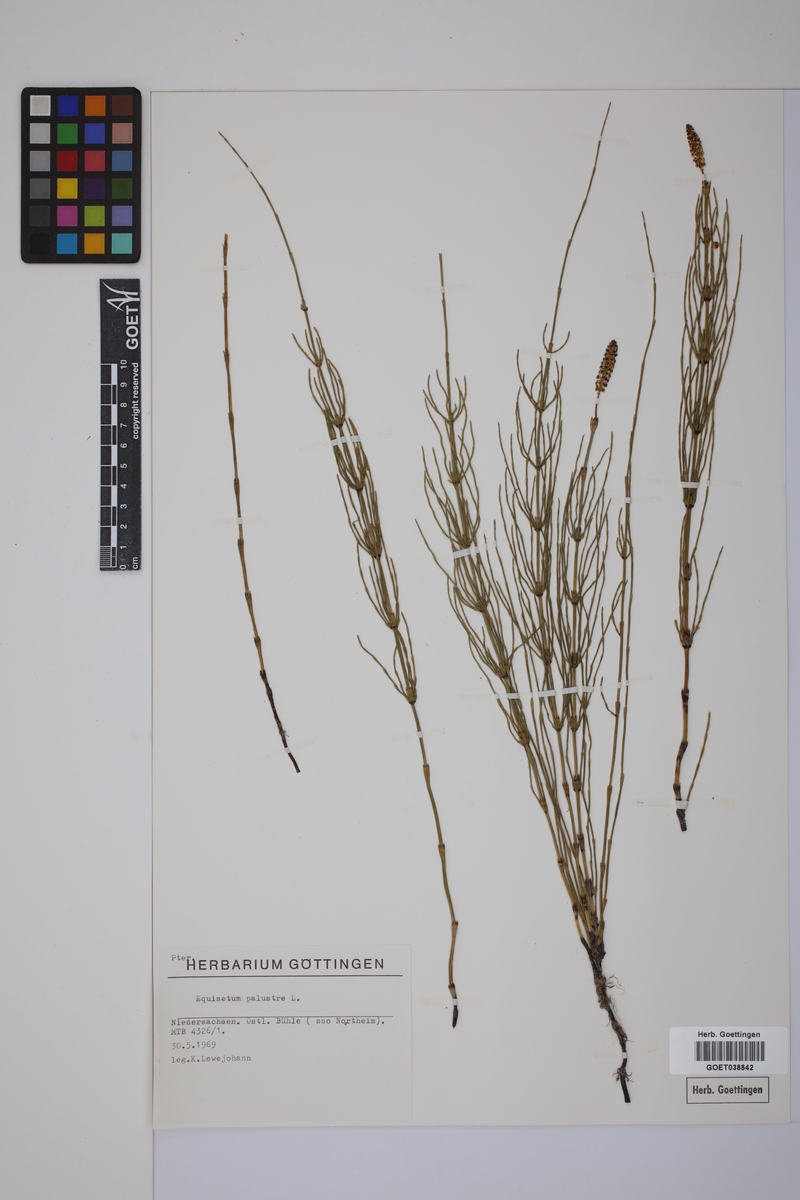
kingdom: Plantae
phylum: Tracheophyta
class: Polypodiopsida
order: Equisetales
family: Equisetaceae
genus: Equisetum
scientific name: Equisetum palustre
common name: Marsh horsetail
